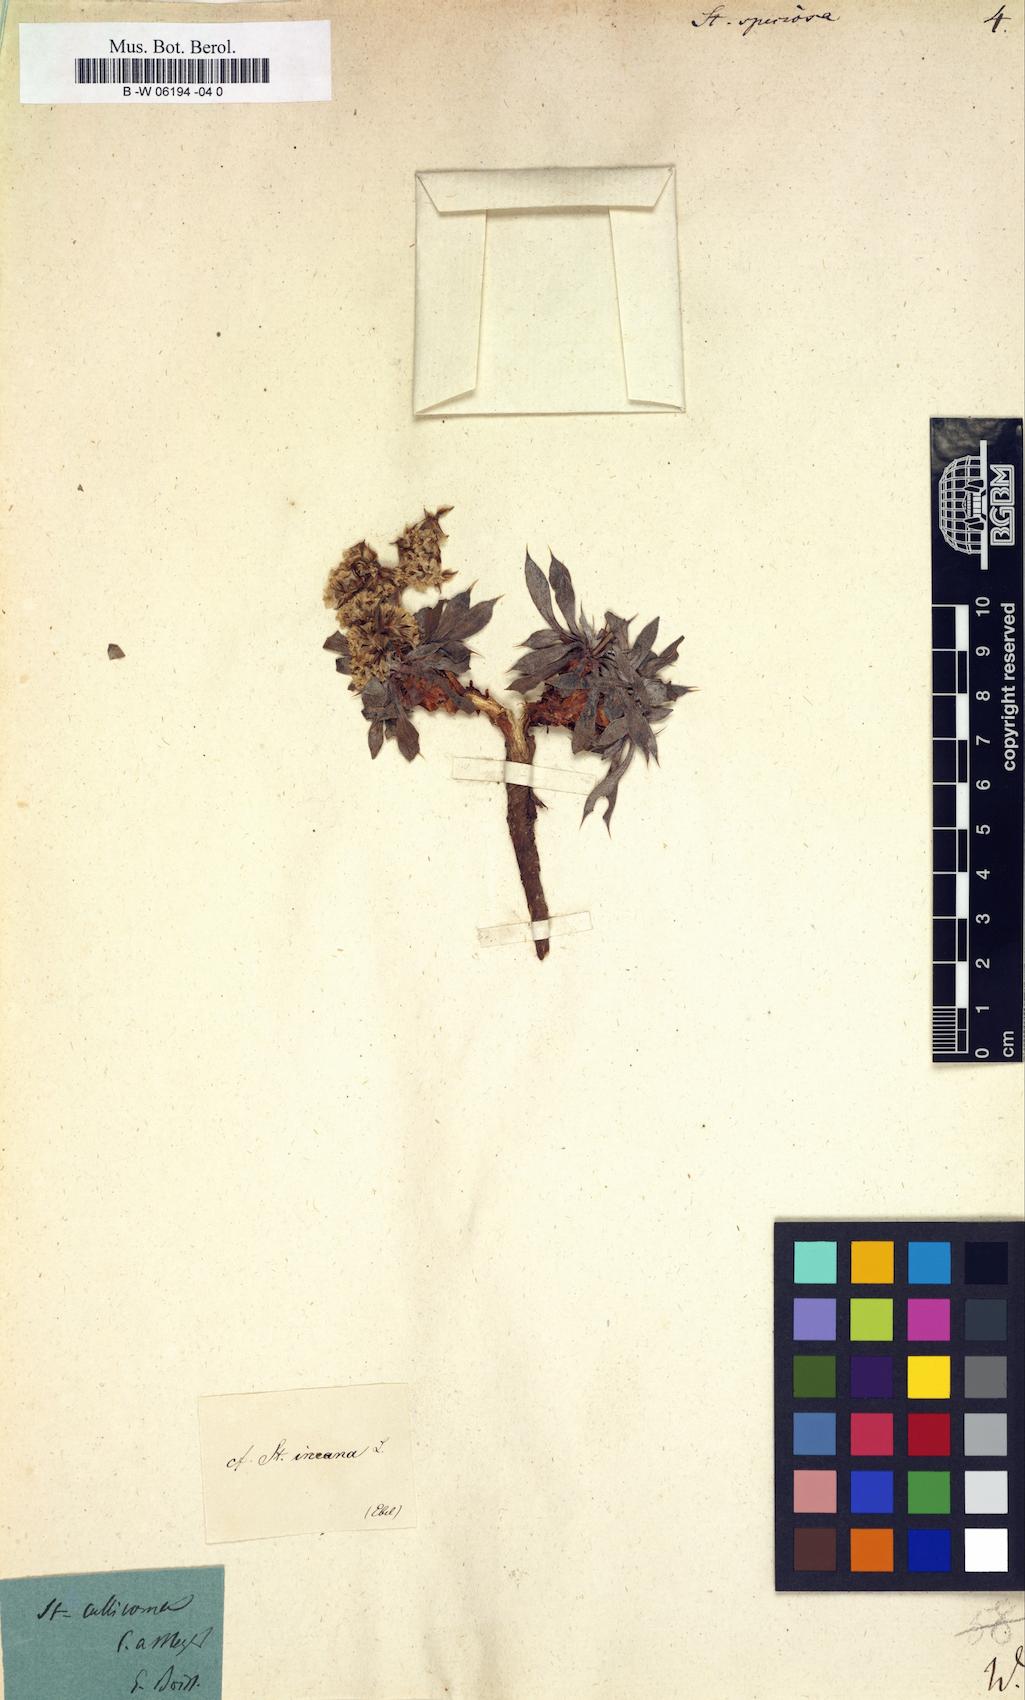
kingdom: Plantae
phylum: Tracheophyta
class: Magnoliopsida
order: Caryophyllales
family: Plumbaginaceae
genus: Goniolimon
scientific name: Goniolimon
